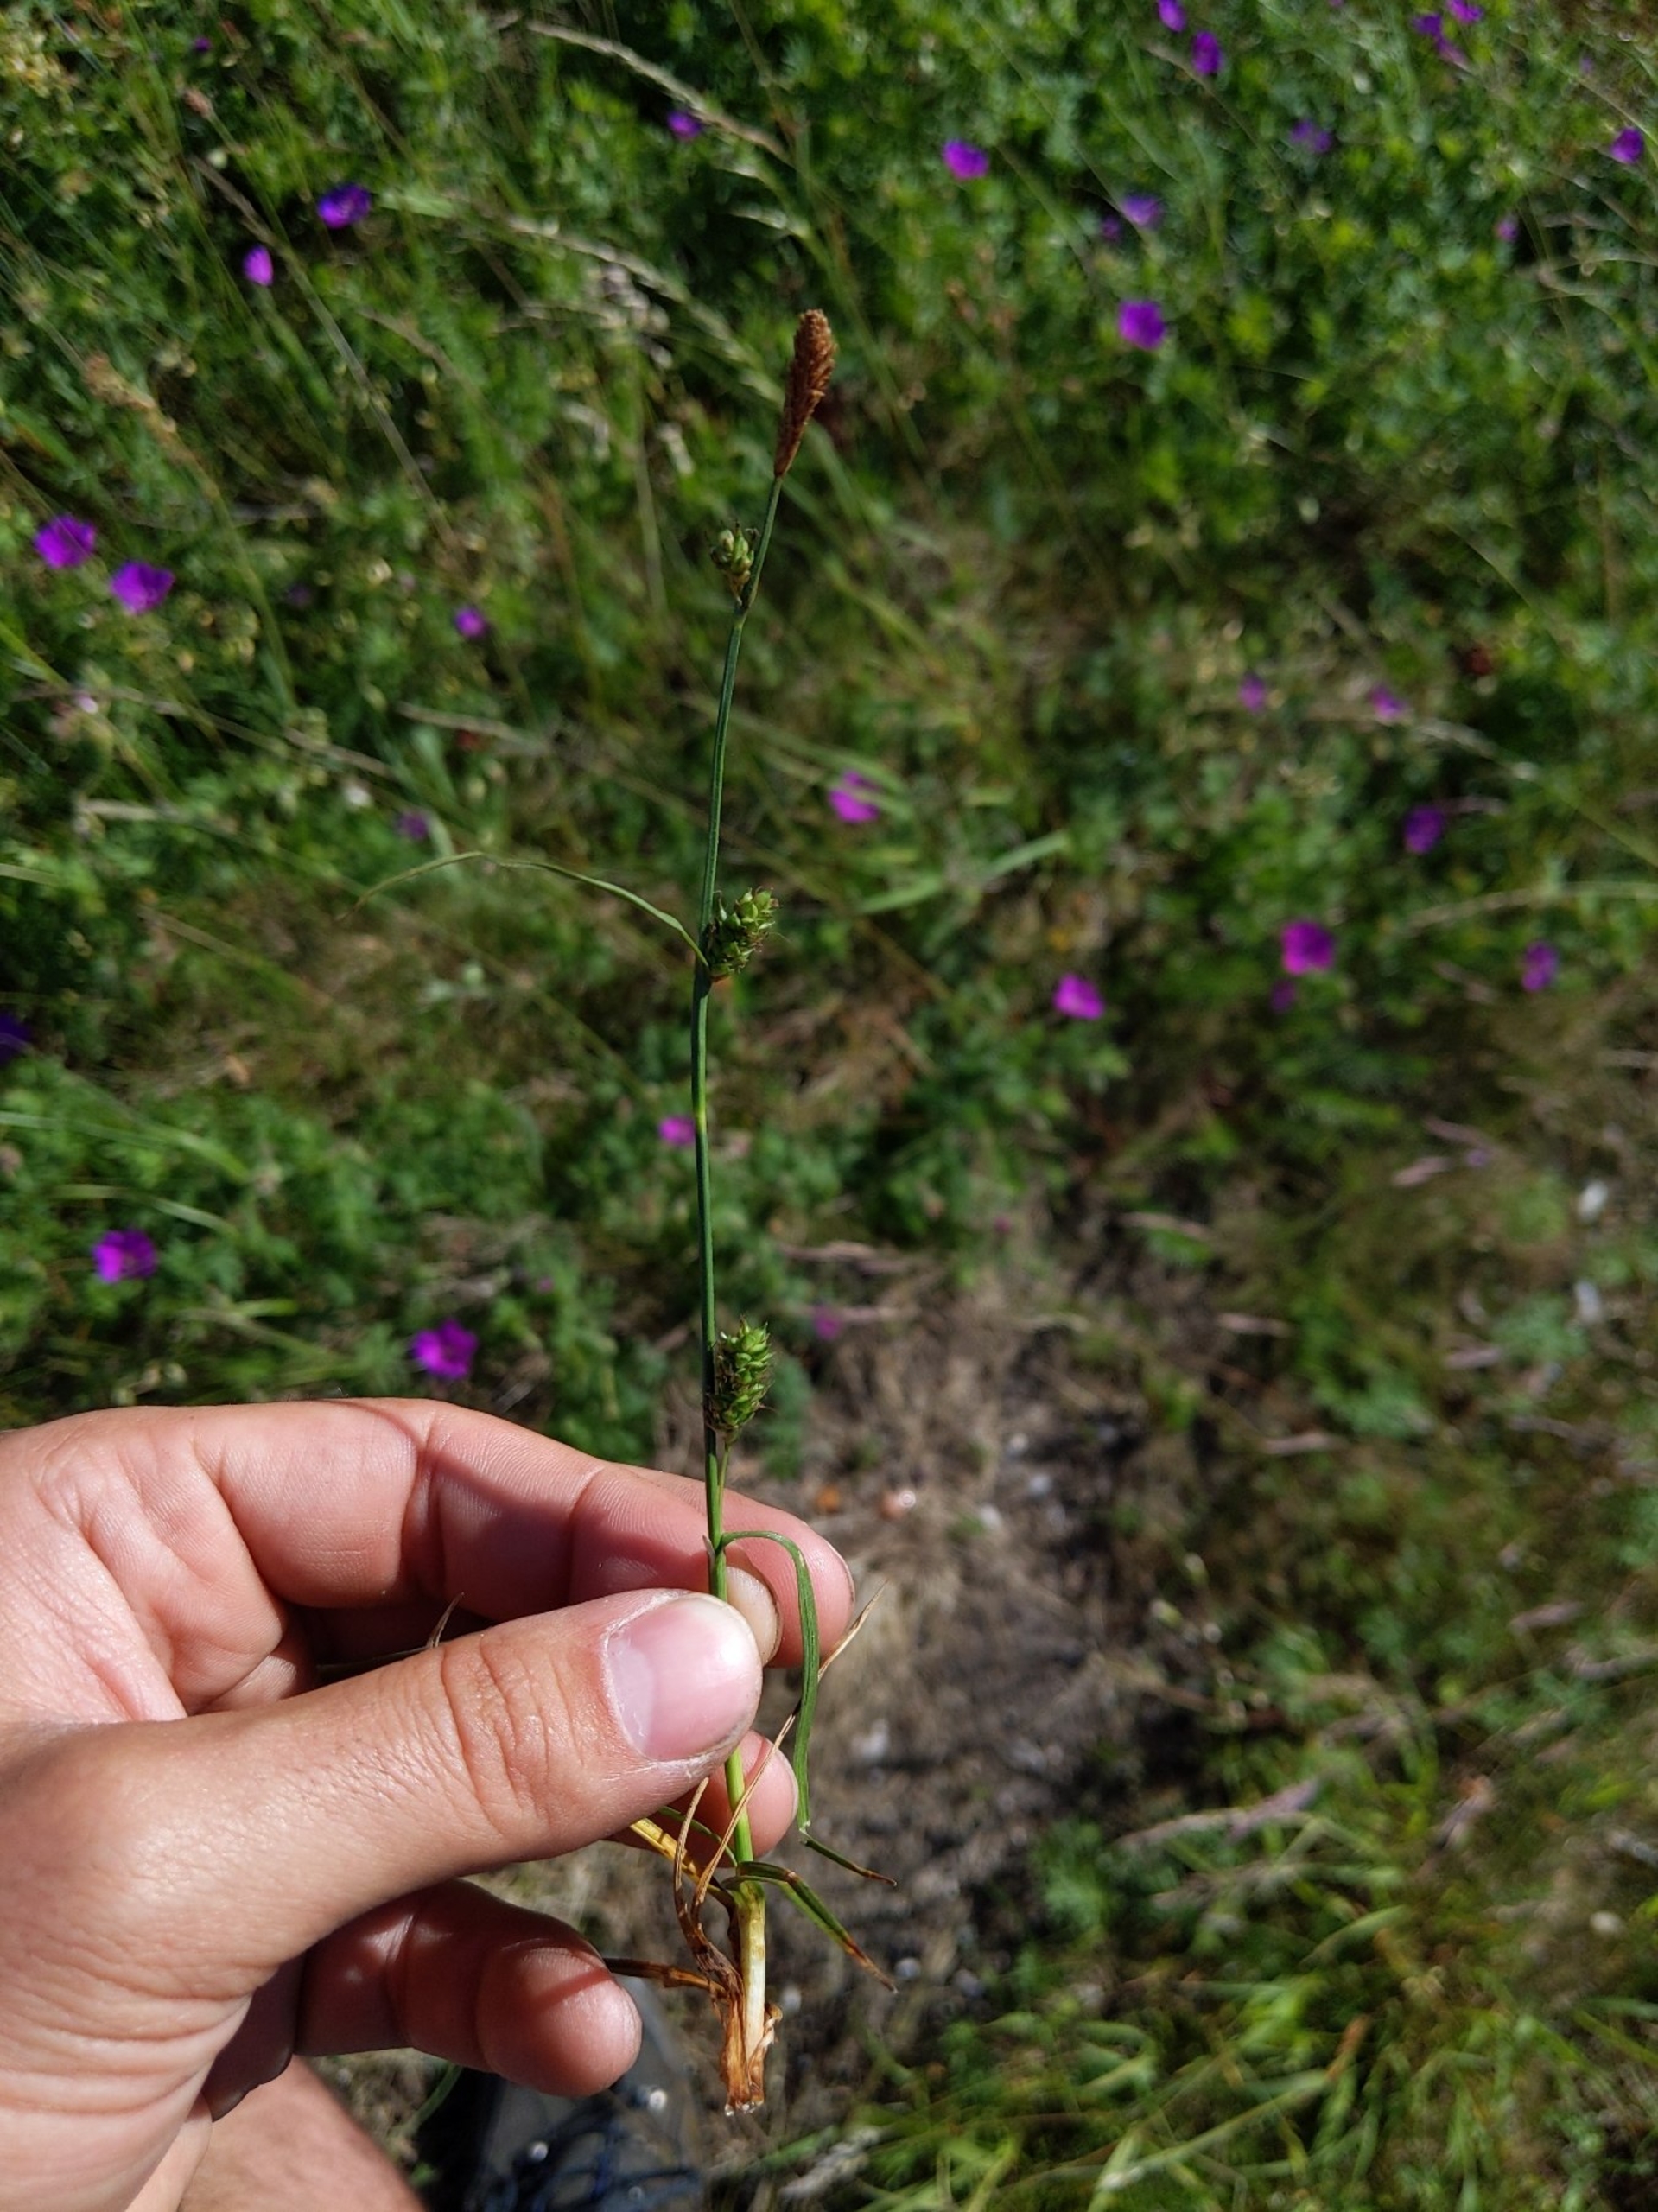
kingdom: Plantae
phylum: Tracheophyta
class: Liliopsida
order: Poales
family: Cyperaceae
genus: Carex
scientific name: Carex distans
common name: Fjernakset star
